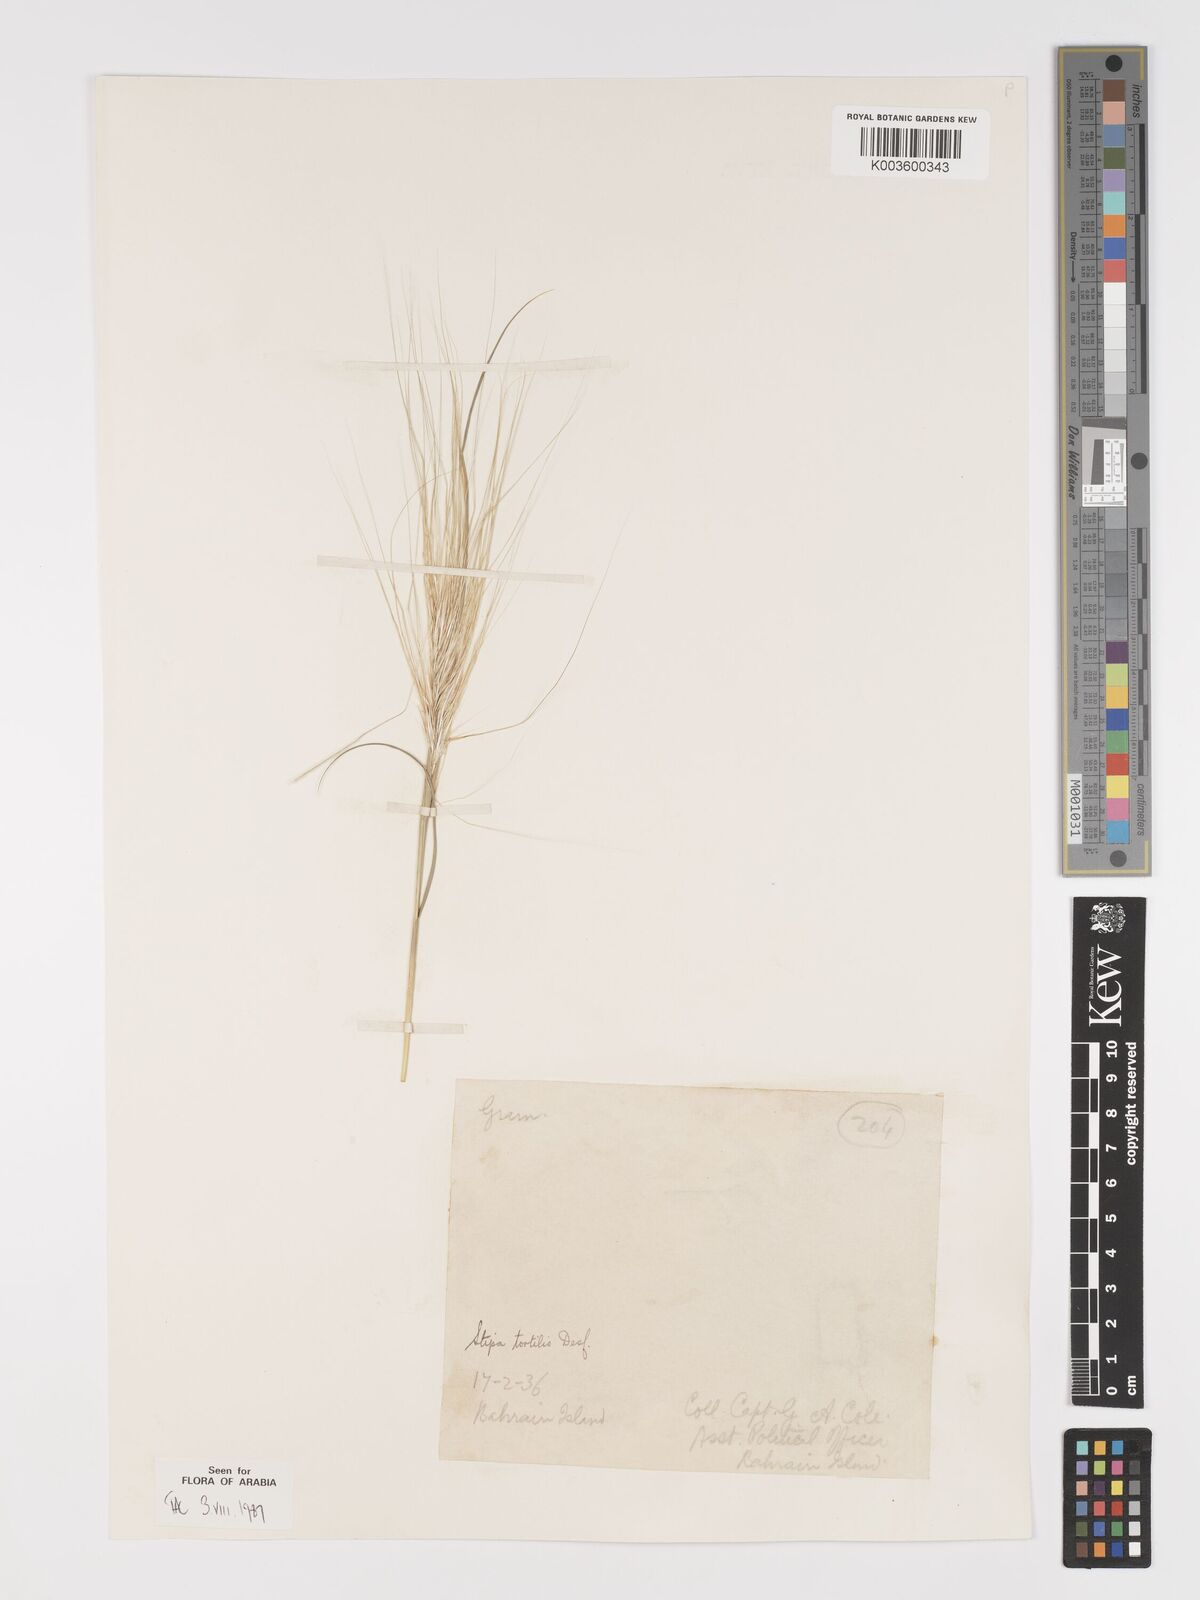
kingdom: Plantae
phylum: Tracheophyta
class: Liliopsida
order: Poales
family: Poaceae
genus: Stipellula
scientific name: Stipellula capensis
